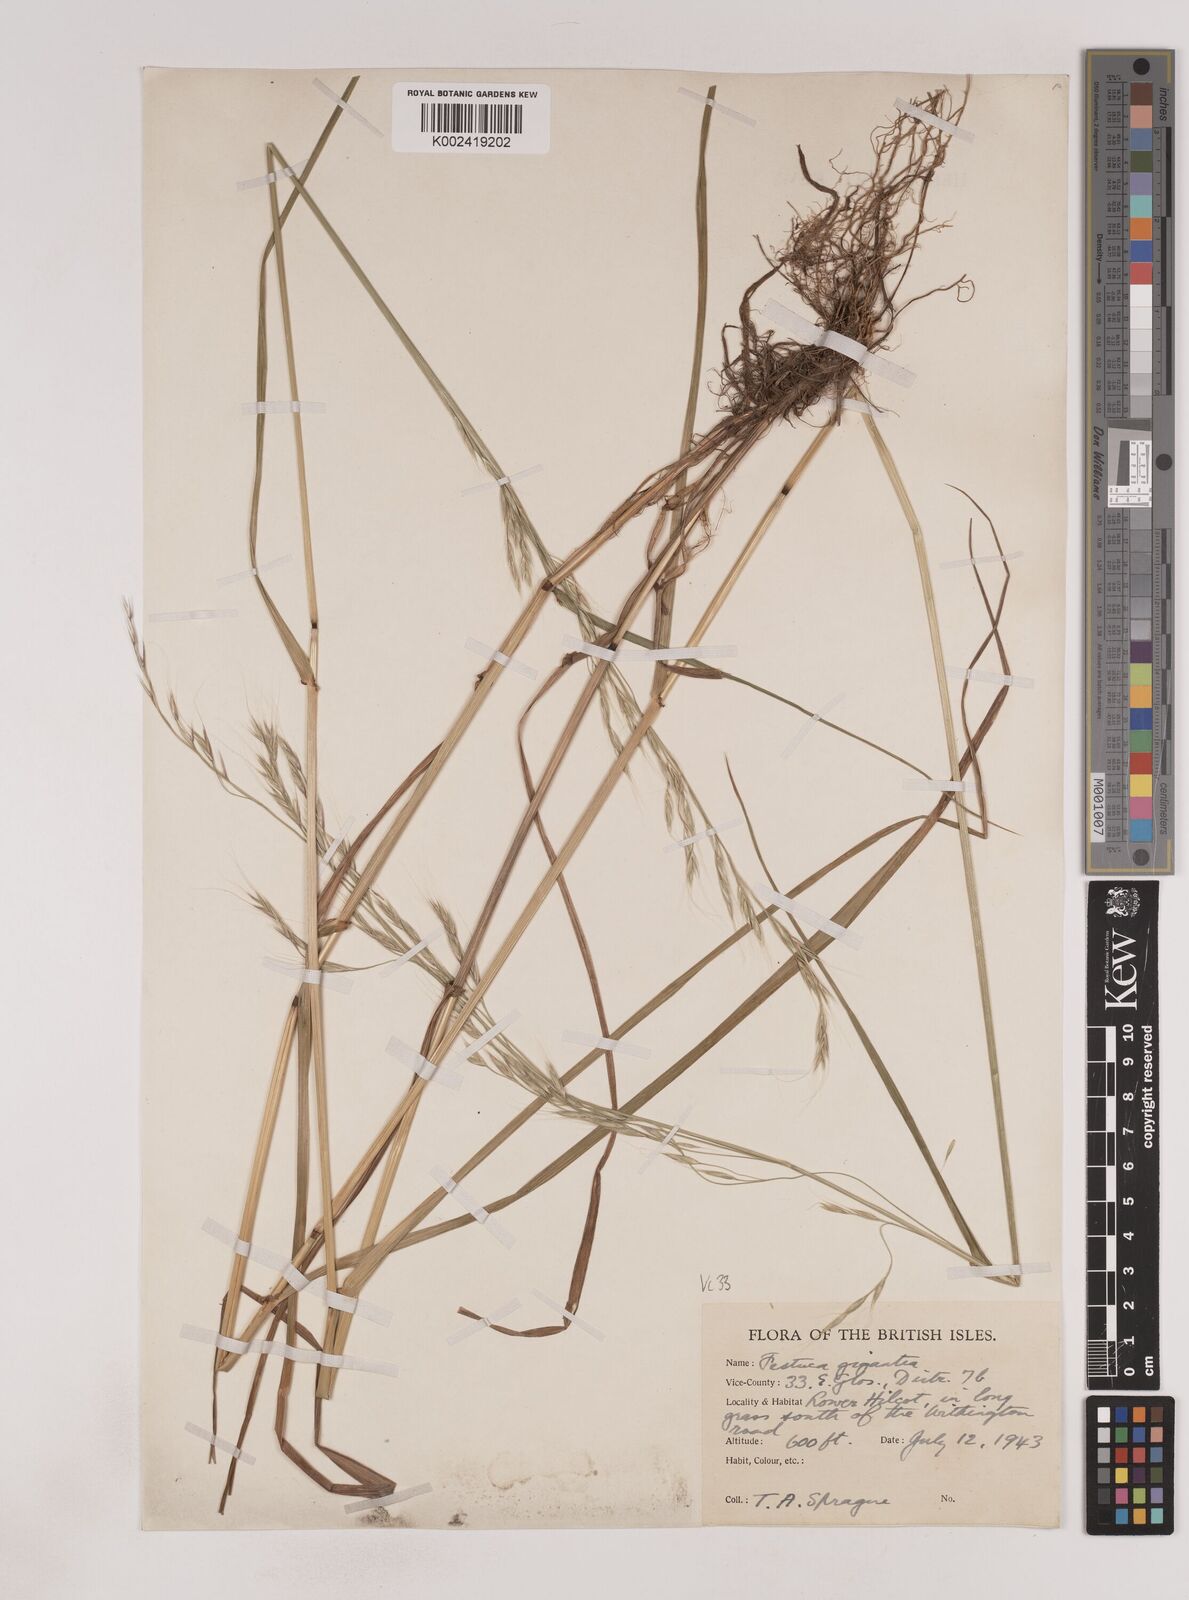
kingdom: Plantae
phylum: Tracheophyta
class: Liliopsida
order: Poales
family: Poaceae
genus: Lolium
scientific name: Lolium giganteum
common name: Giant fescue
